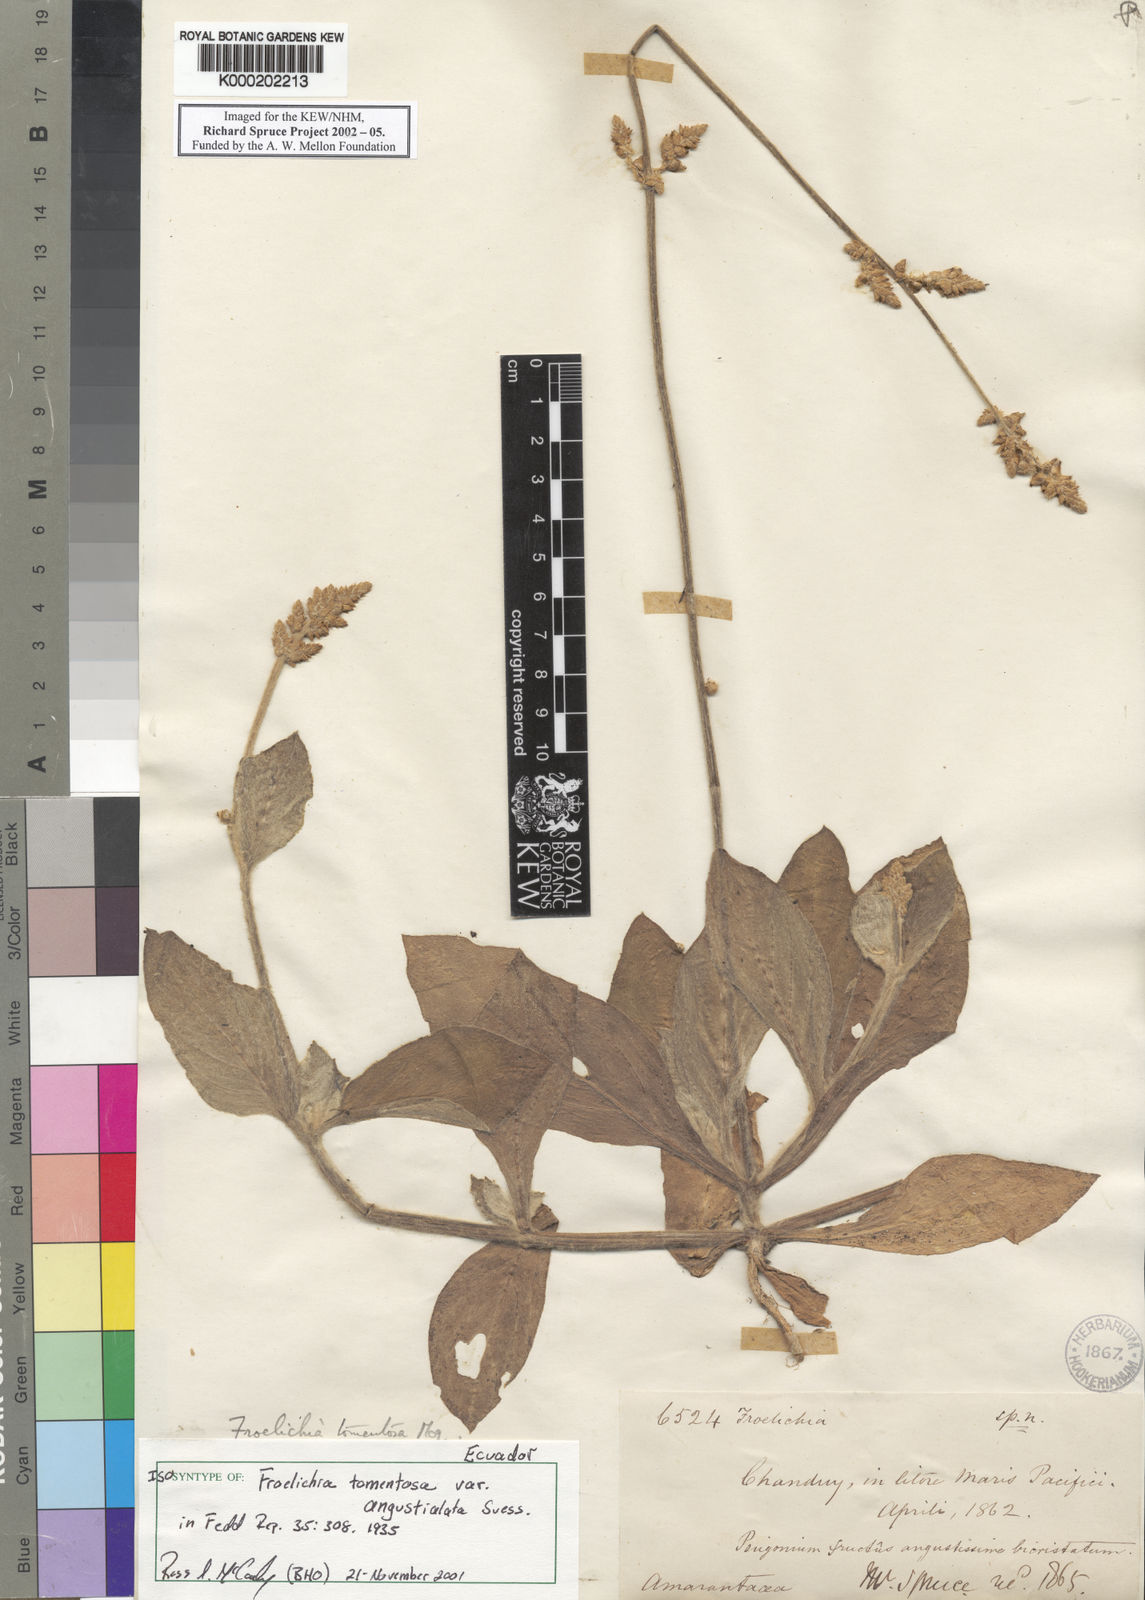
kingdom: Plantae
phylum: Tracheophyta
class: Magnoliopsida
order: Caryophyllales
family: Amaranthaceae
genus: Froelichia
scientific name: Froelichia interrupta
